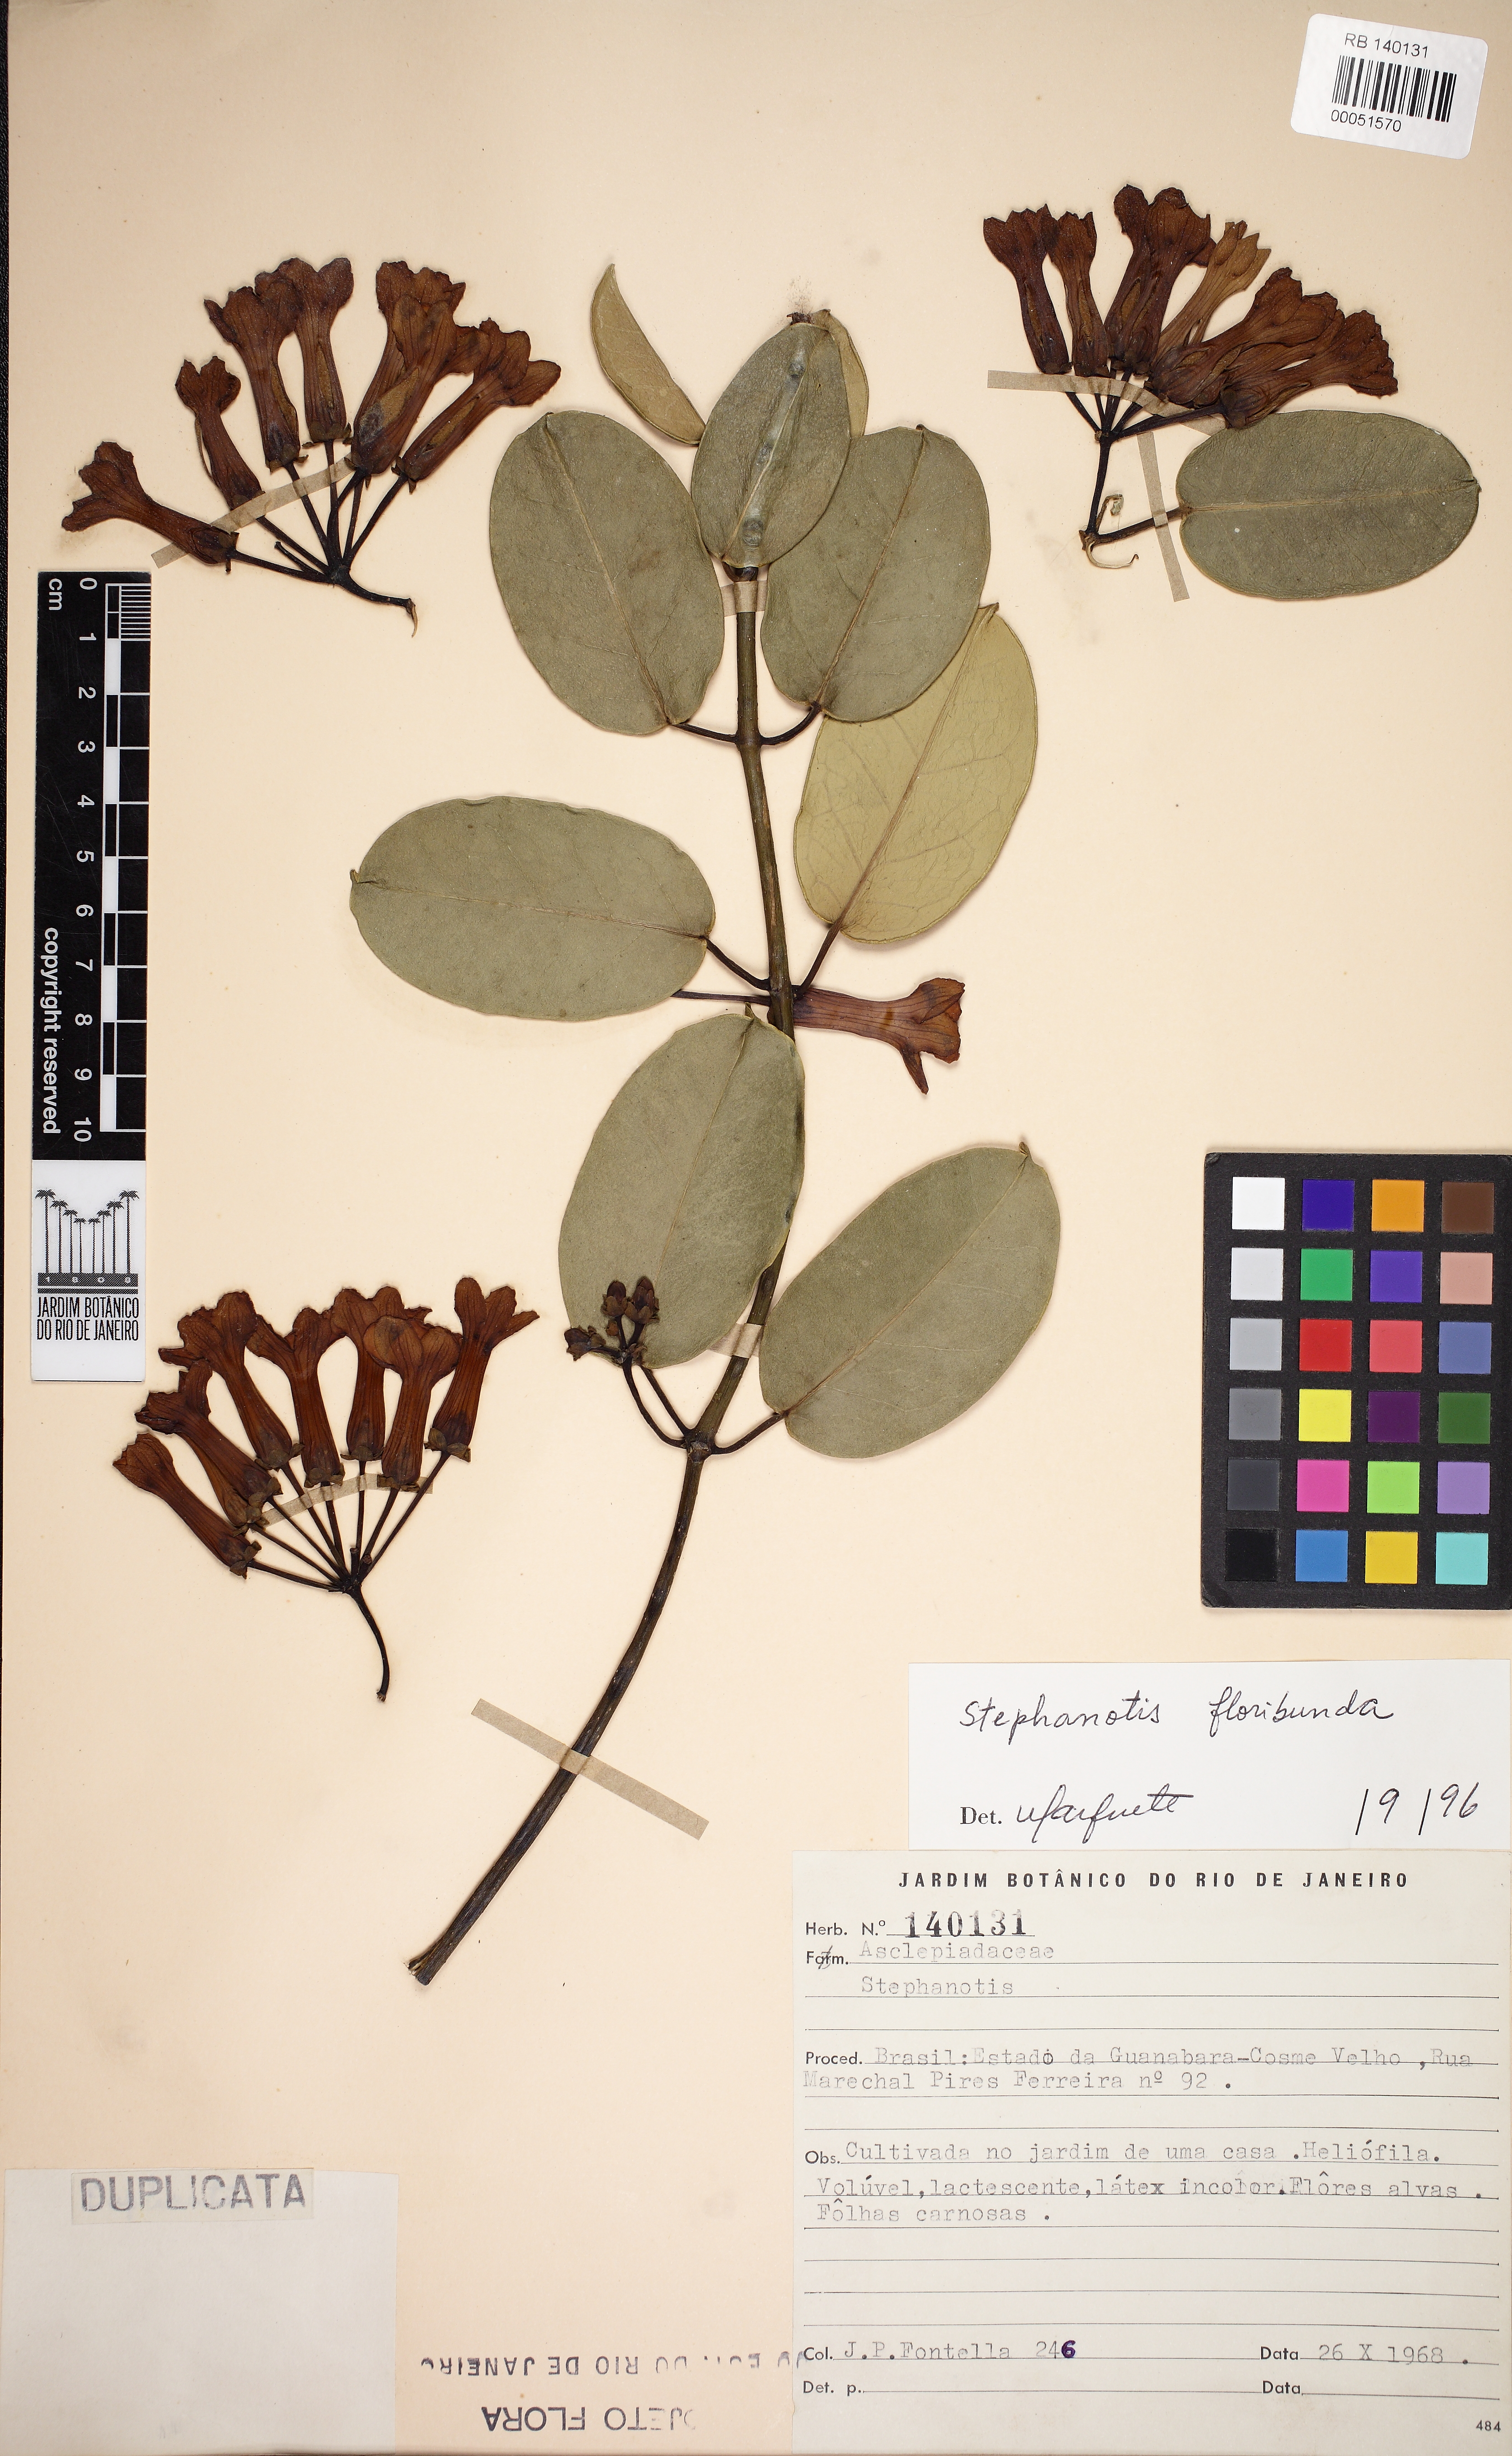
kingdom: Plantae
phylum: Tracheophyta
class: Magnoliopsida
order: Gentianales
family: Apocynaceae
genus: Stephanotis
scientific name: Stephanotis floribunda
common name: Bridalwreath
